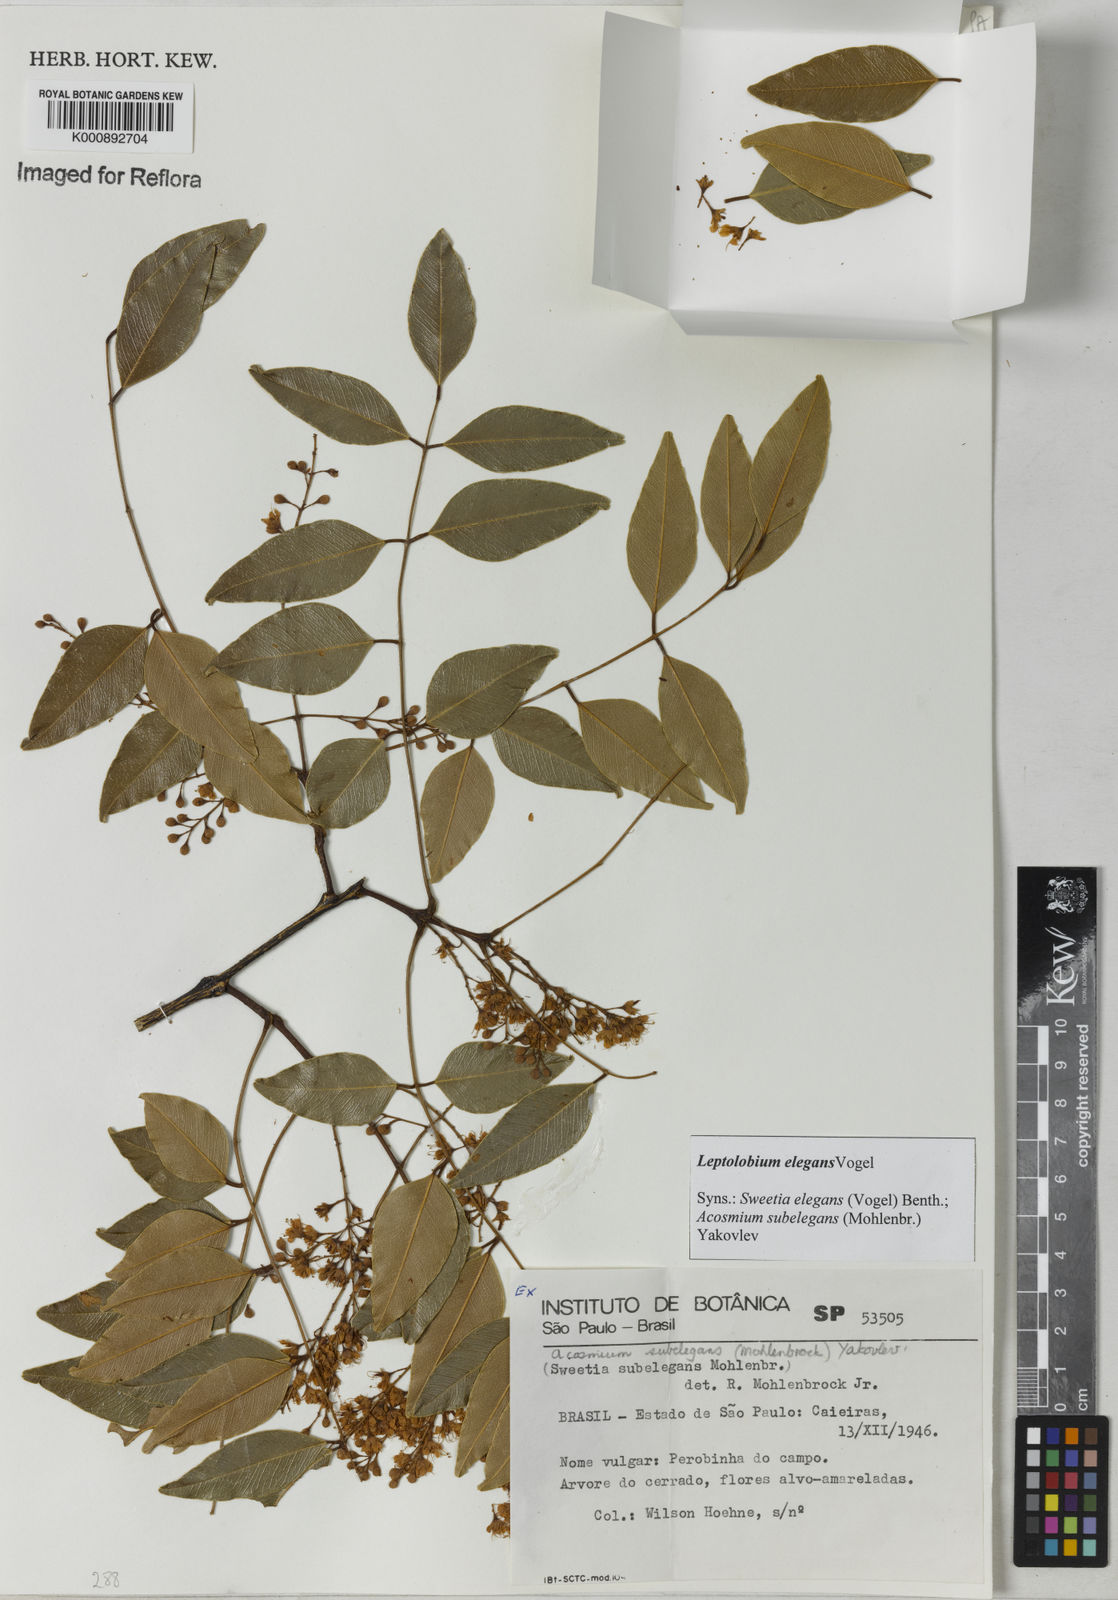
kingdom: Plantae
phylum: Tracheophyta
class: Magnoliopsida
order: Fabales
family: Fabaceae
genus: Leptolobium
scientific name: Leptolobium elegans
